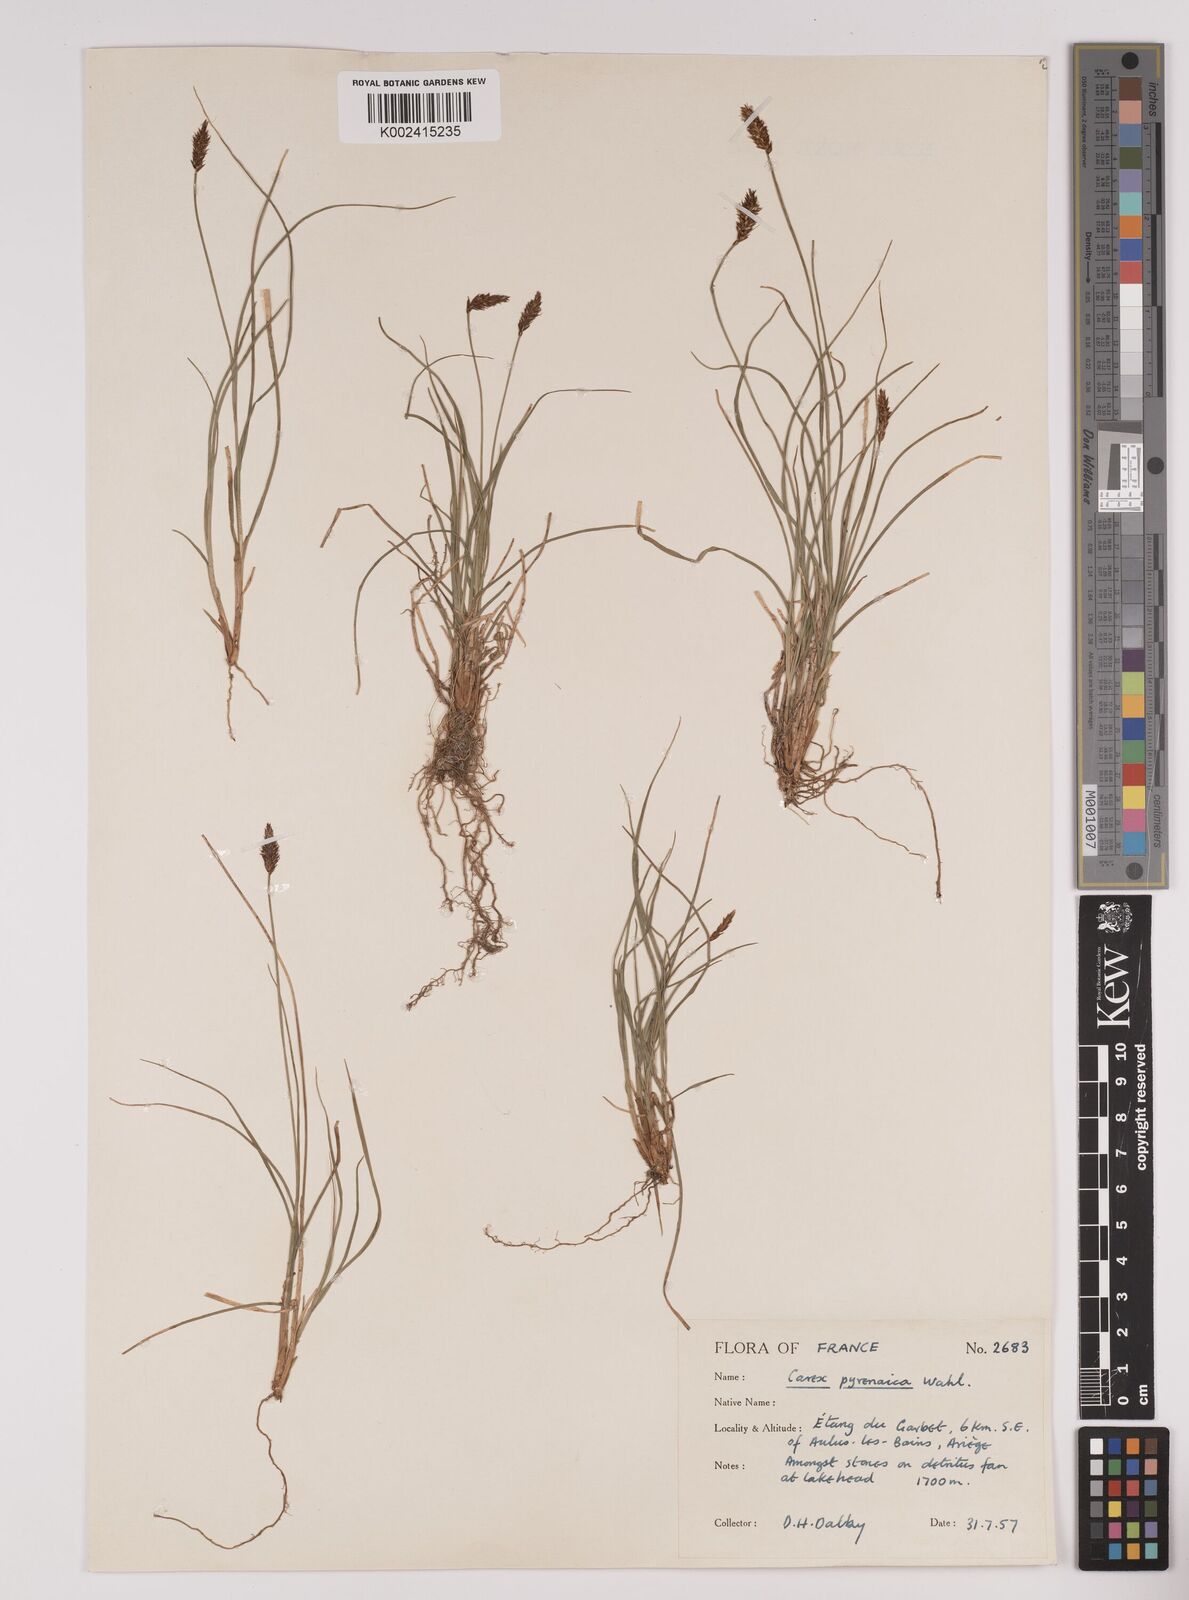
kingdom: Plantae
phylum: Tracheophyta
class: Liliopsida
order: Poales
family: Cyperaceae
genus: Carex
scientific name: Carex pyrenaica
